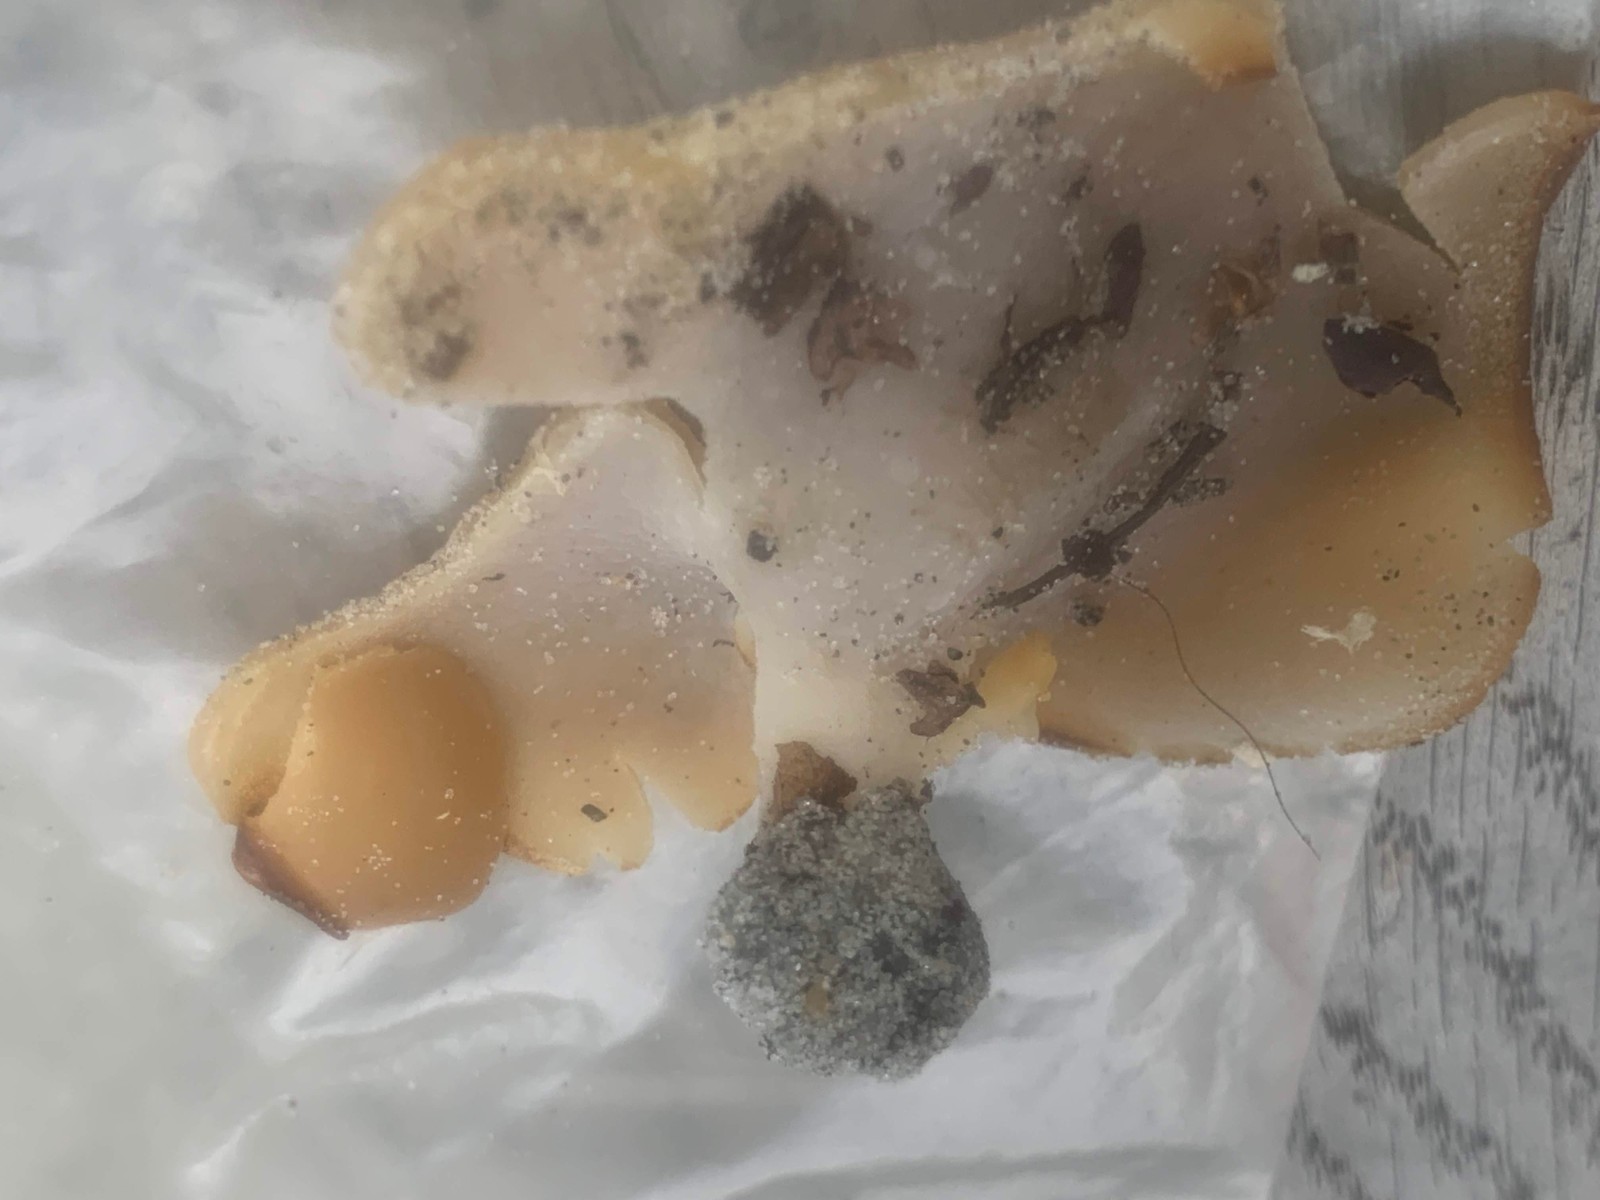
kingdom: Fungi
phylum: Ascomycota
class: Pezizomycetes
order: Pezizales
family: Pezizaceae
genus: Peziza
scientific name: Peziza varia
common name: Ved-bægersvamp
